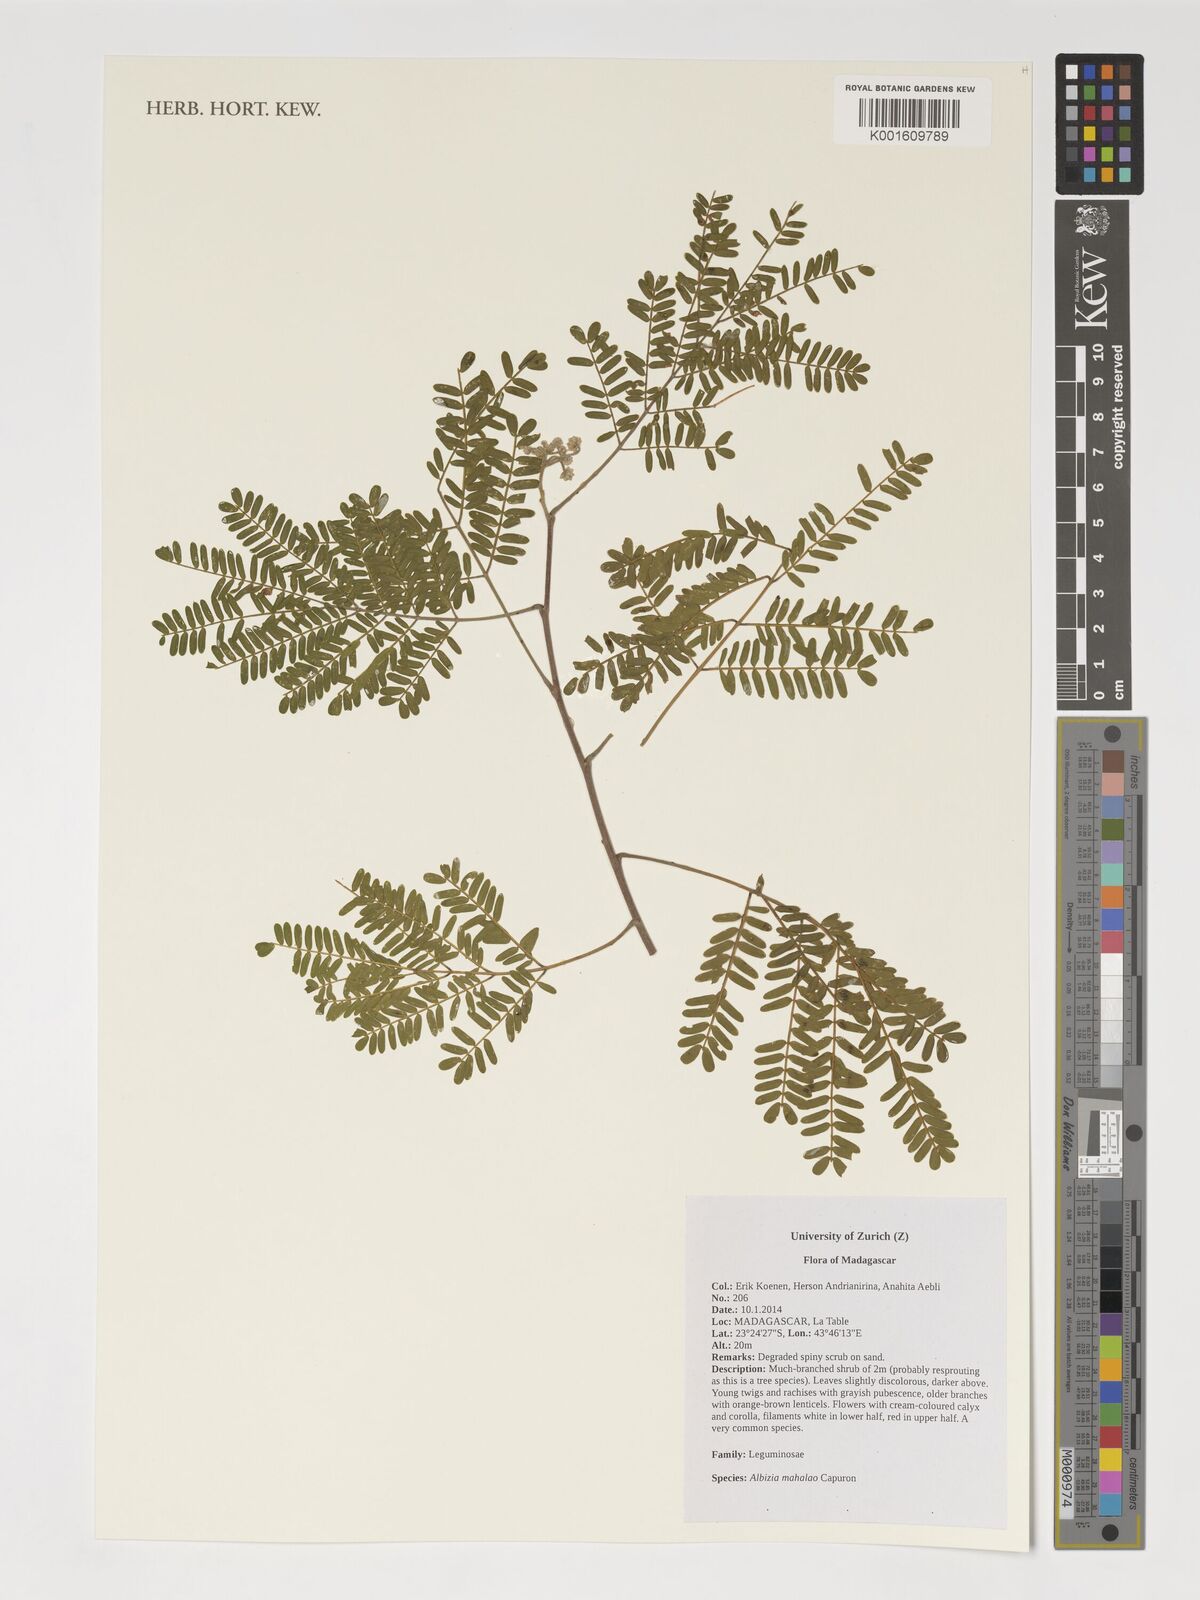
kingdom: Plantae
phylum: Tracheophyta
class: Magnoliopsida
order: Fabales
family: Fabaceae
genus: Albizia
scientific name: Albizia mahalao
